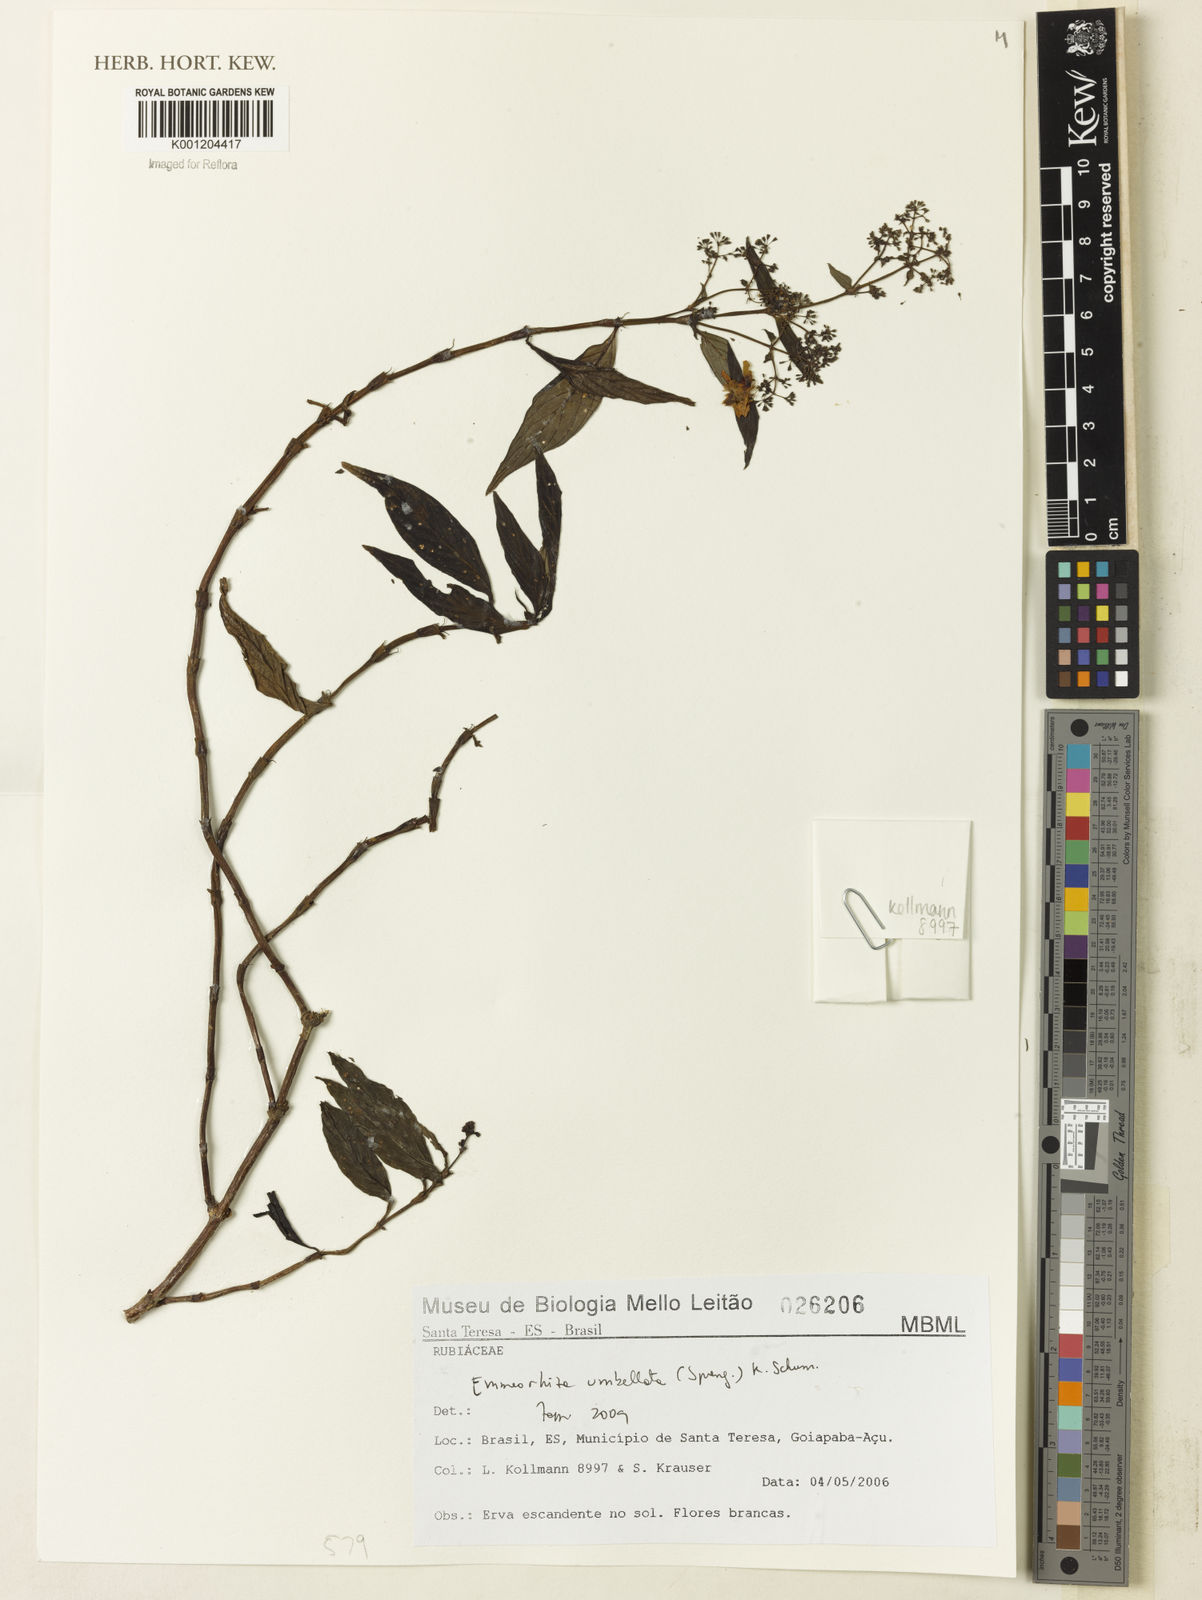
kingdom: Plantae
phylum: Tracheophyta
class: Magnoliopsida
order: Gentianales
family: Rubiaceae
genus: Emmeorhiza
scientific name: Emmeorhiza umbellata
